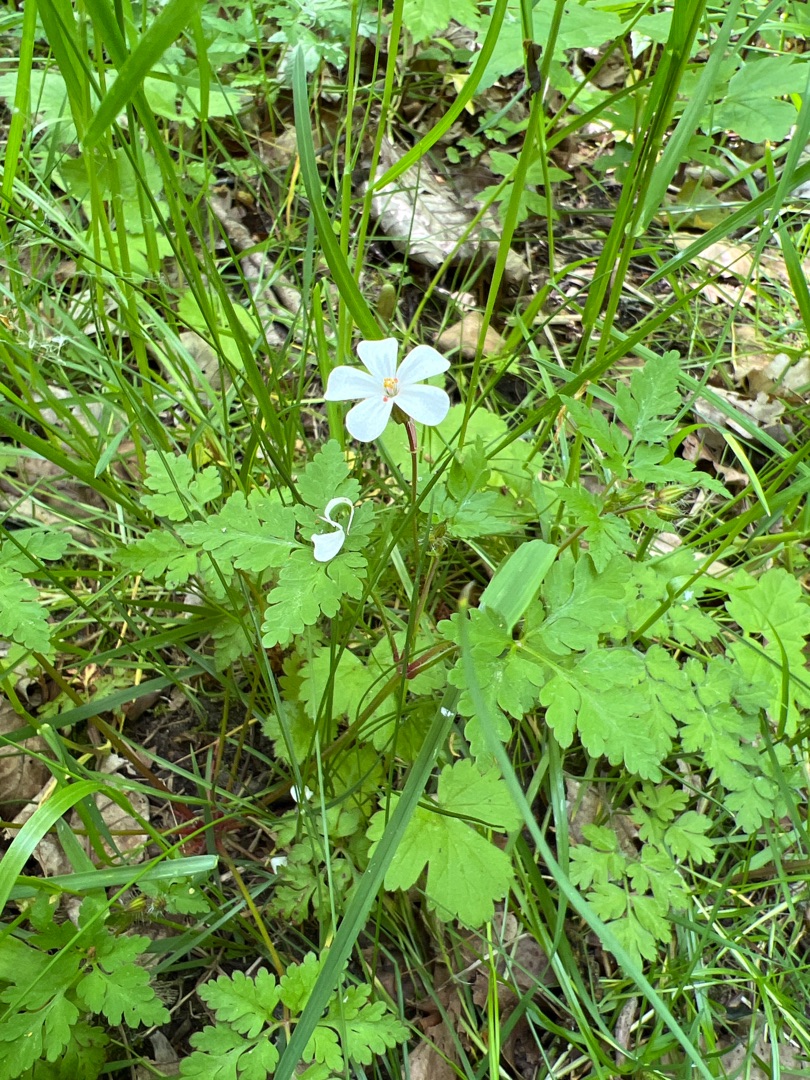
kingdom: Plantae
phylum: Tracheophyta
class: Magnoliopsida
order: Geraniales
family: Geraniaceae
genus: Geranium
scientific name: Geranium robertianum
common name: Stinkende storkenæb
